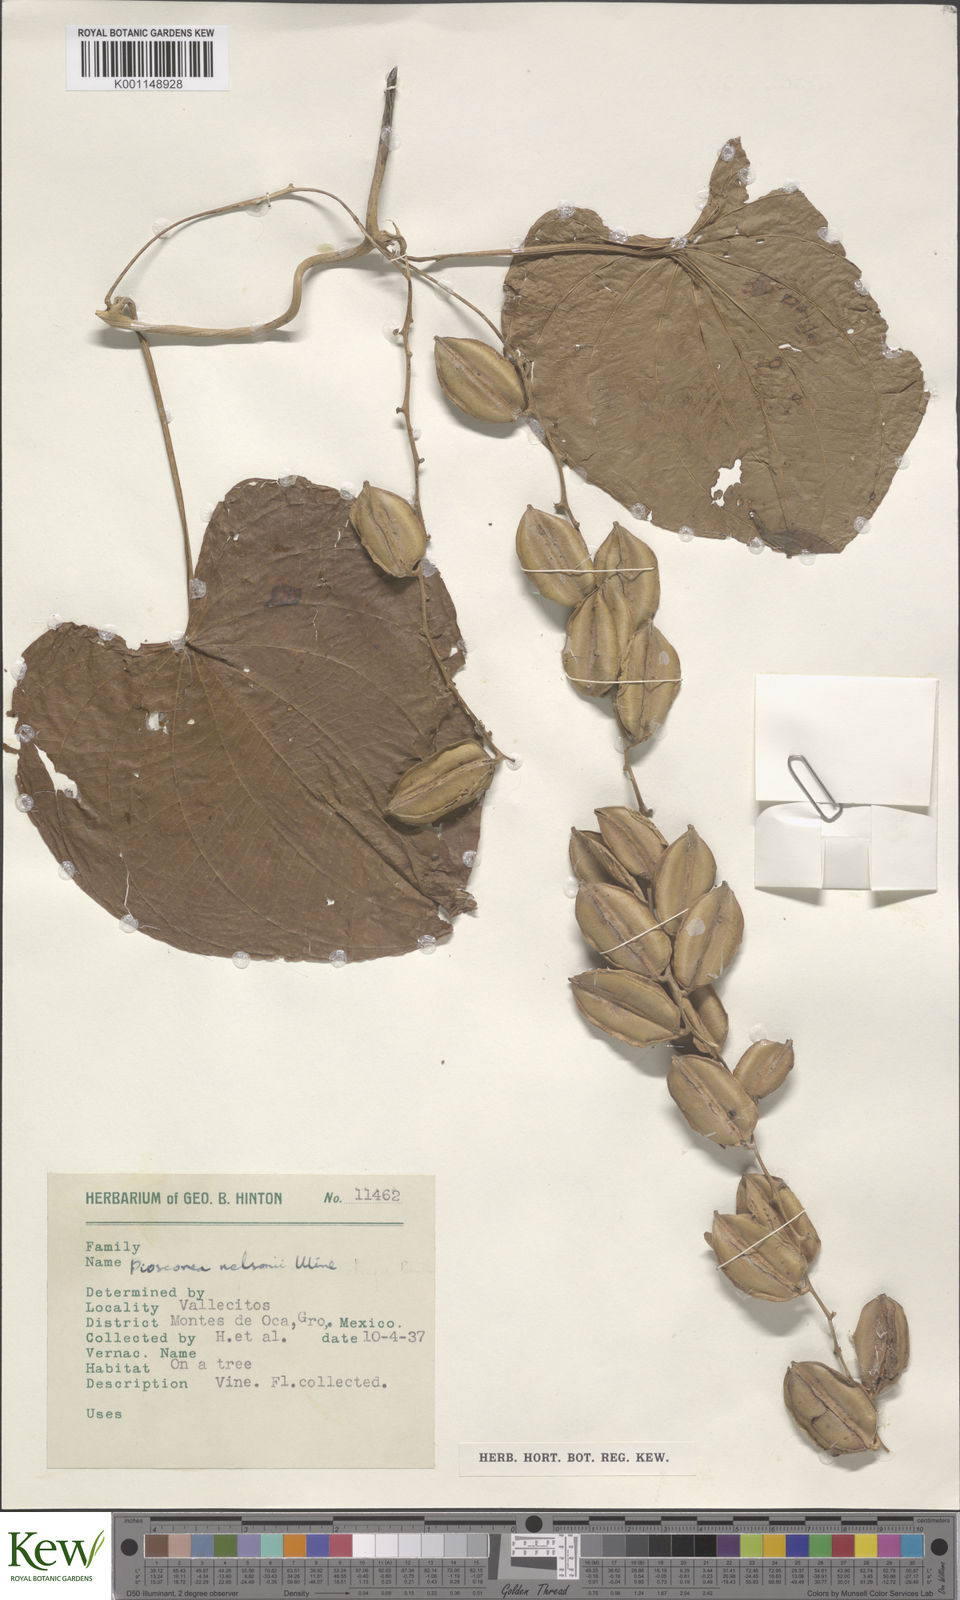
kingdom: Plantae
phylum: Tracheophyta
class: Liliopsida
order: Dioscoreales
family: Dioscoreaceae
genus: Dioscorea
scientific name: Dioscorea nelsonii
